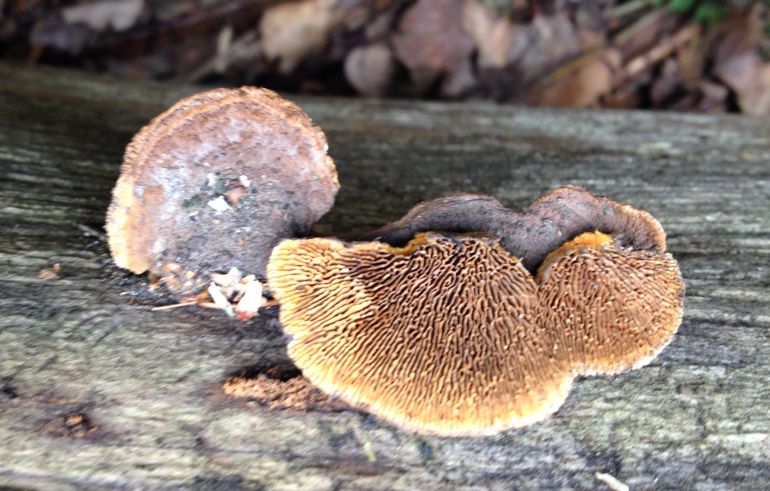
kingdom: Fungi
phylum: Basidiomycota
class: Agaricomycetes
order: Gloeophyllales
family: Gloeophyllaceae
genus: Gloeophyllum
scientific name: Gloeophyllum sepiarium
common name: fyrre-korkhat
